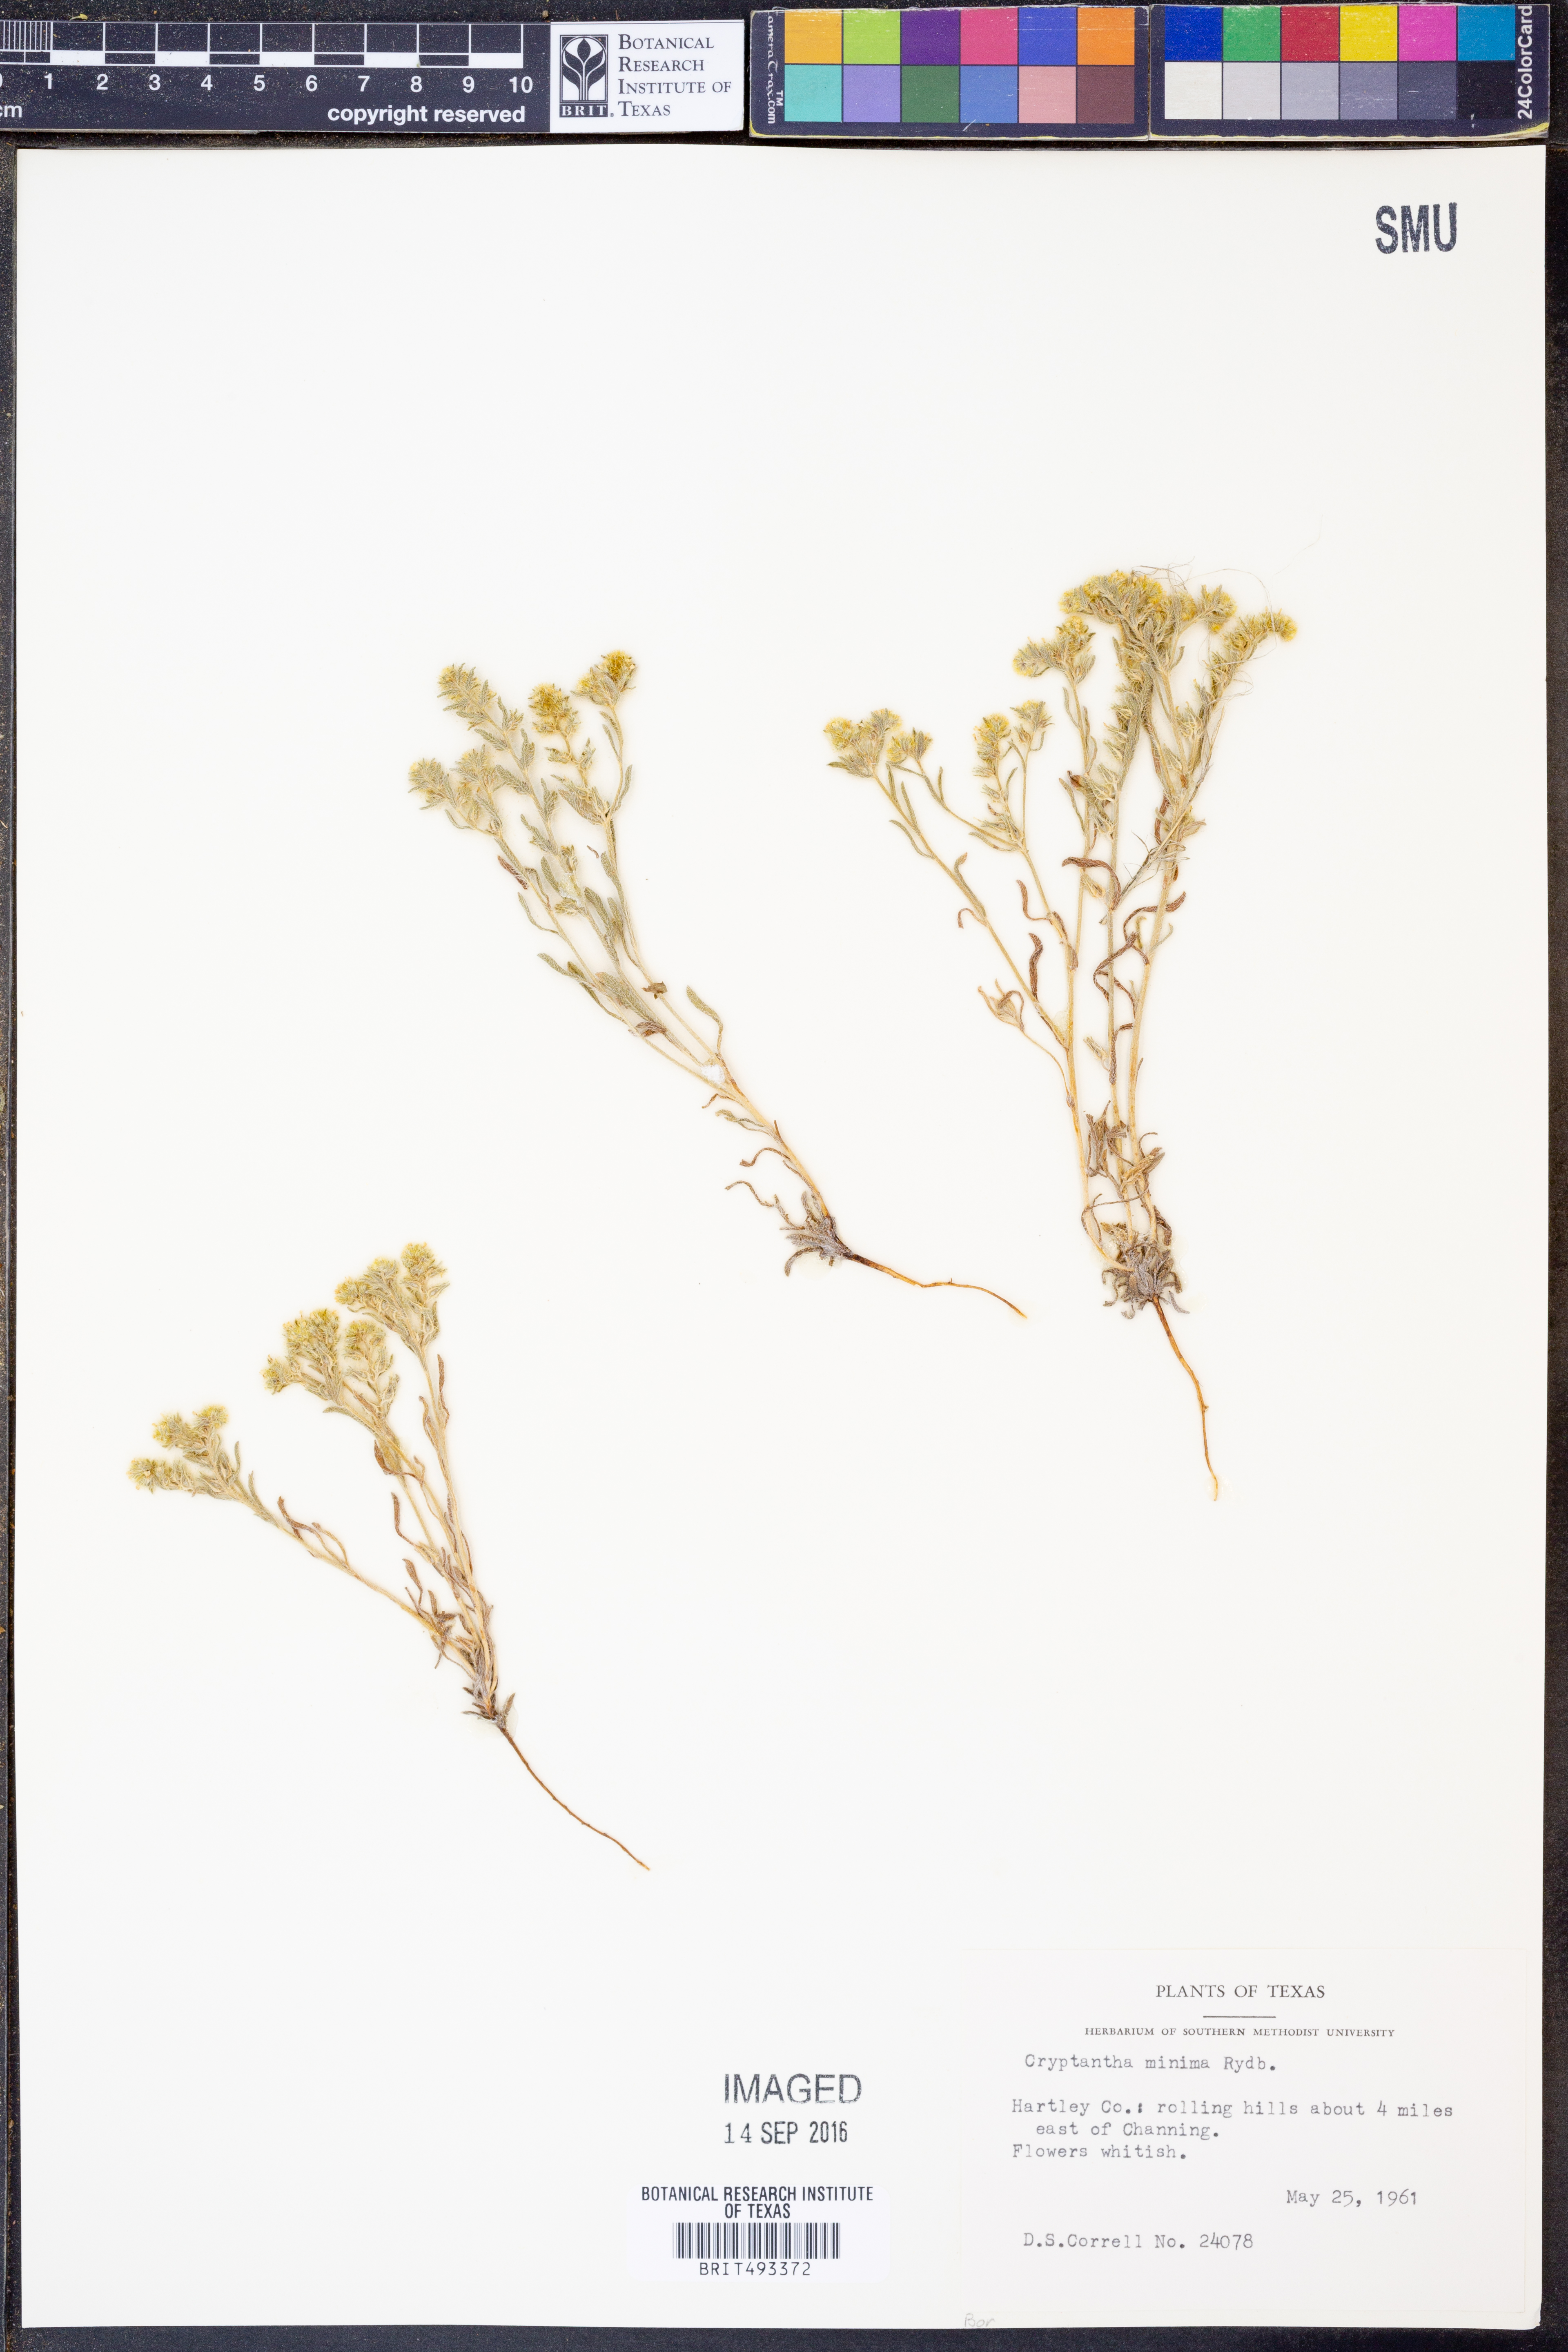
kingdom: Plantae
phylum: Tracheophyta
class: Magnoliopsida
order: Boraginales
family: Boraginaceae
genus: Cryptantha
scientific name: Cryptantha minima
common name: Little cat's-eye
